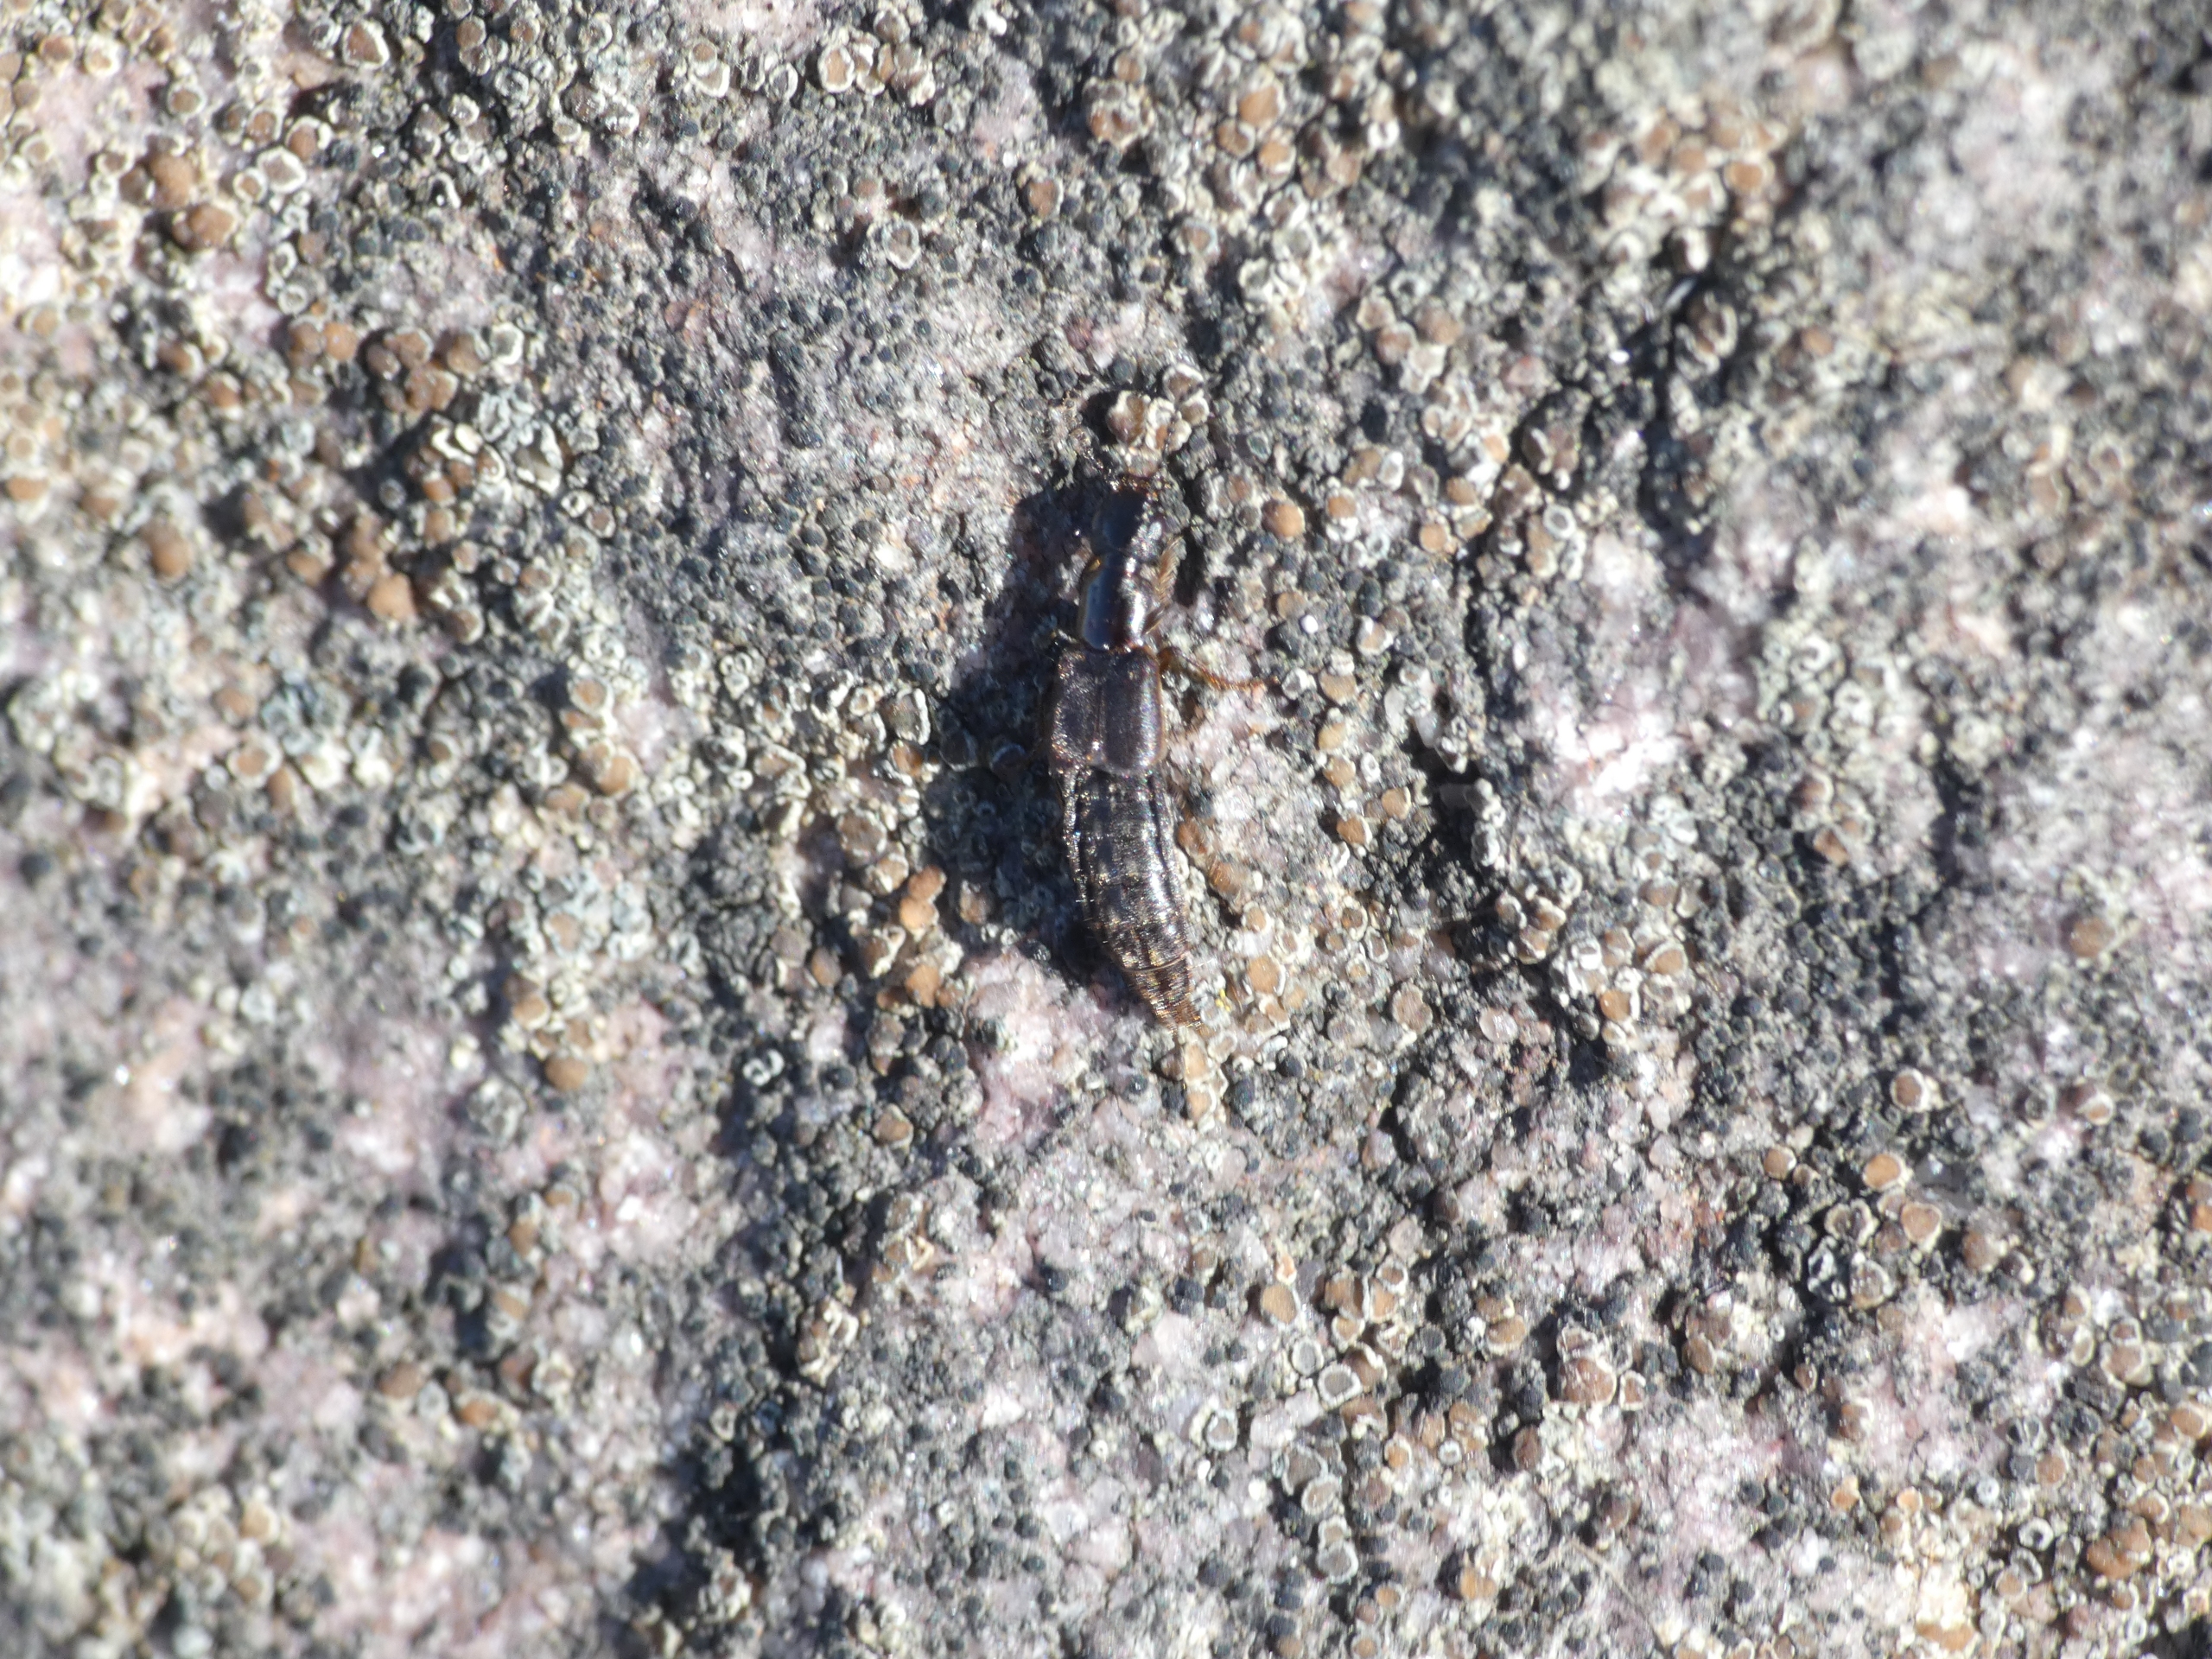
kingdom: Animalia
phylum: Arthropoda
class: Insecta
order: Coleoptera
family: Staphylinidae
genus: Cafius
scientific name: Cafius xantholoma
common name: Strandrovbille
